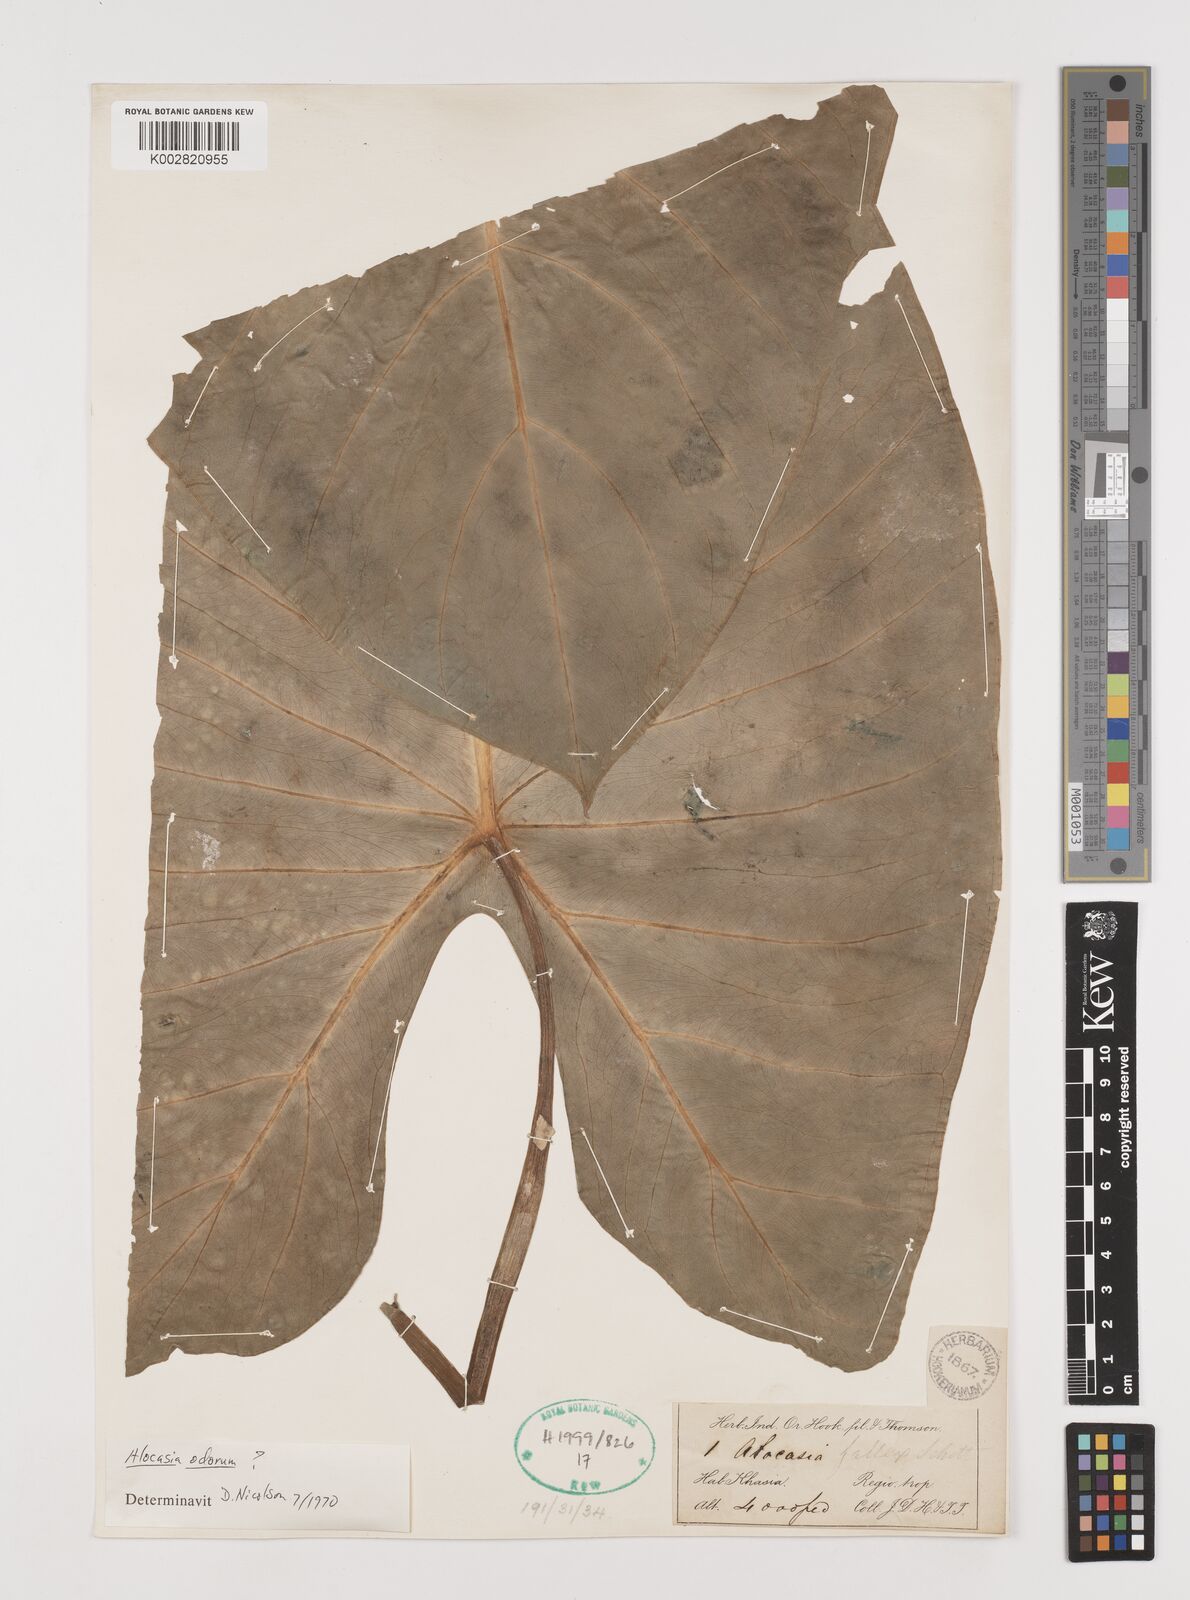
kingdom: Plantae
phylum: Tracheophyta
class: Liliopsida
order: Alismatales
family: Araceae
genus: Alocasia
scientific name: Alocasia odora
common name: Asian taro
